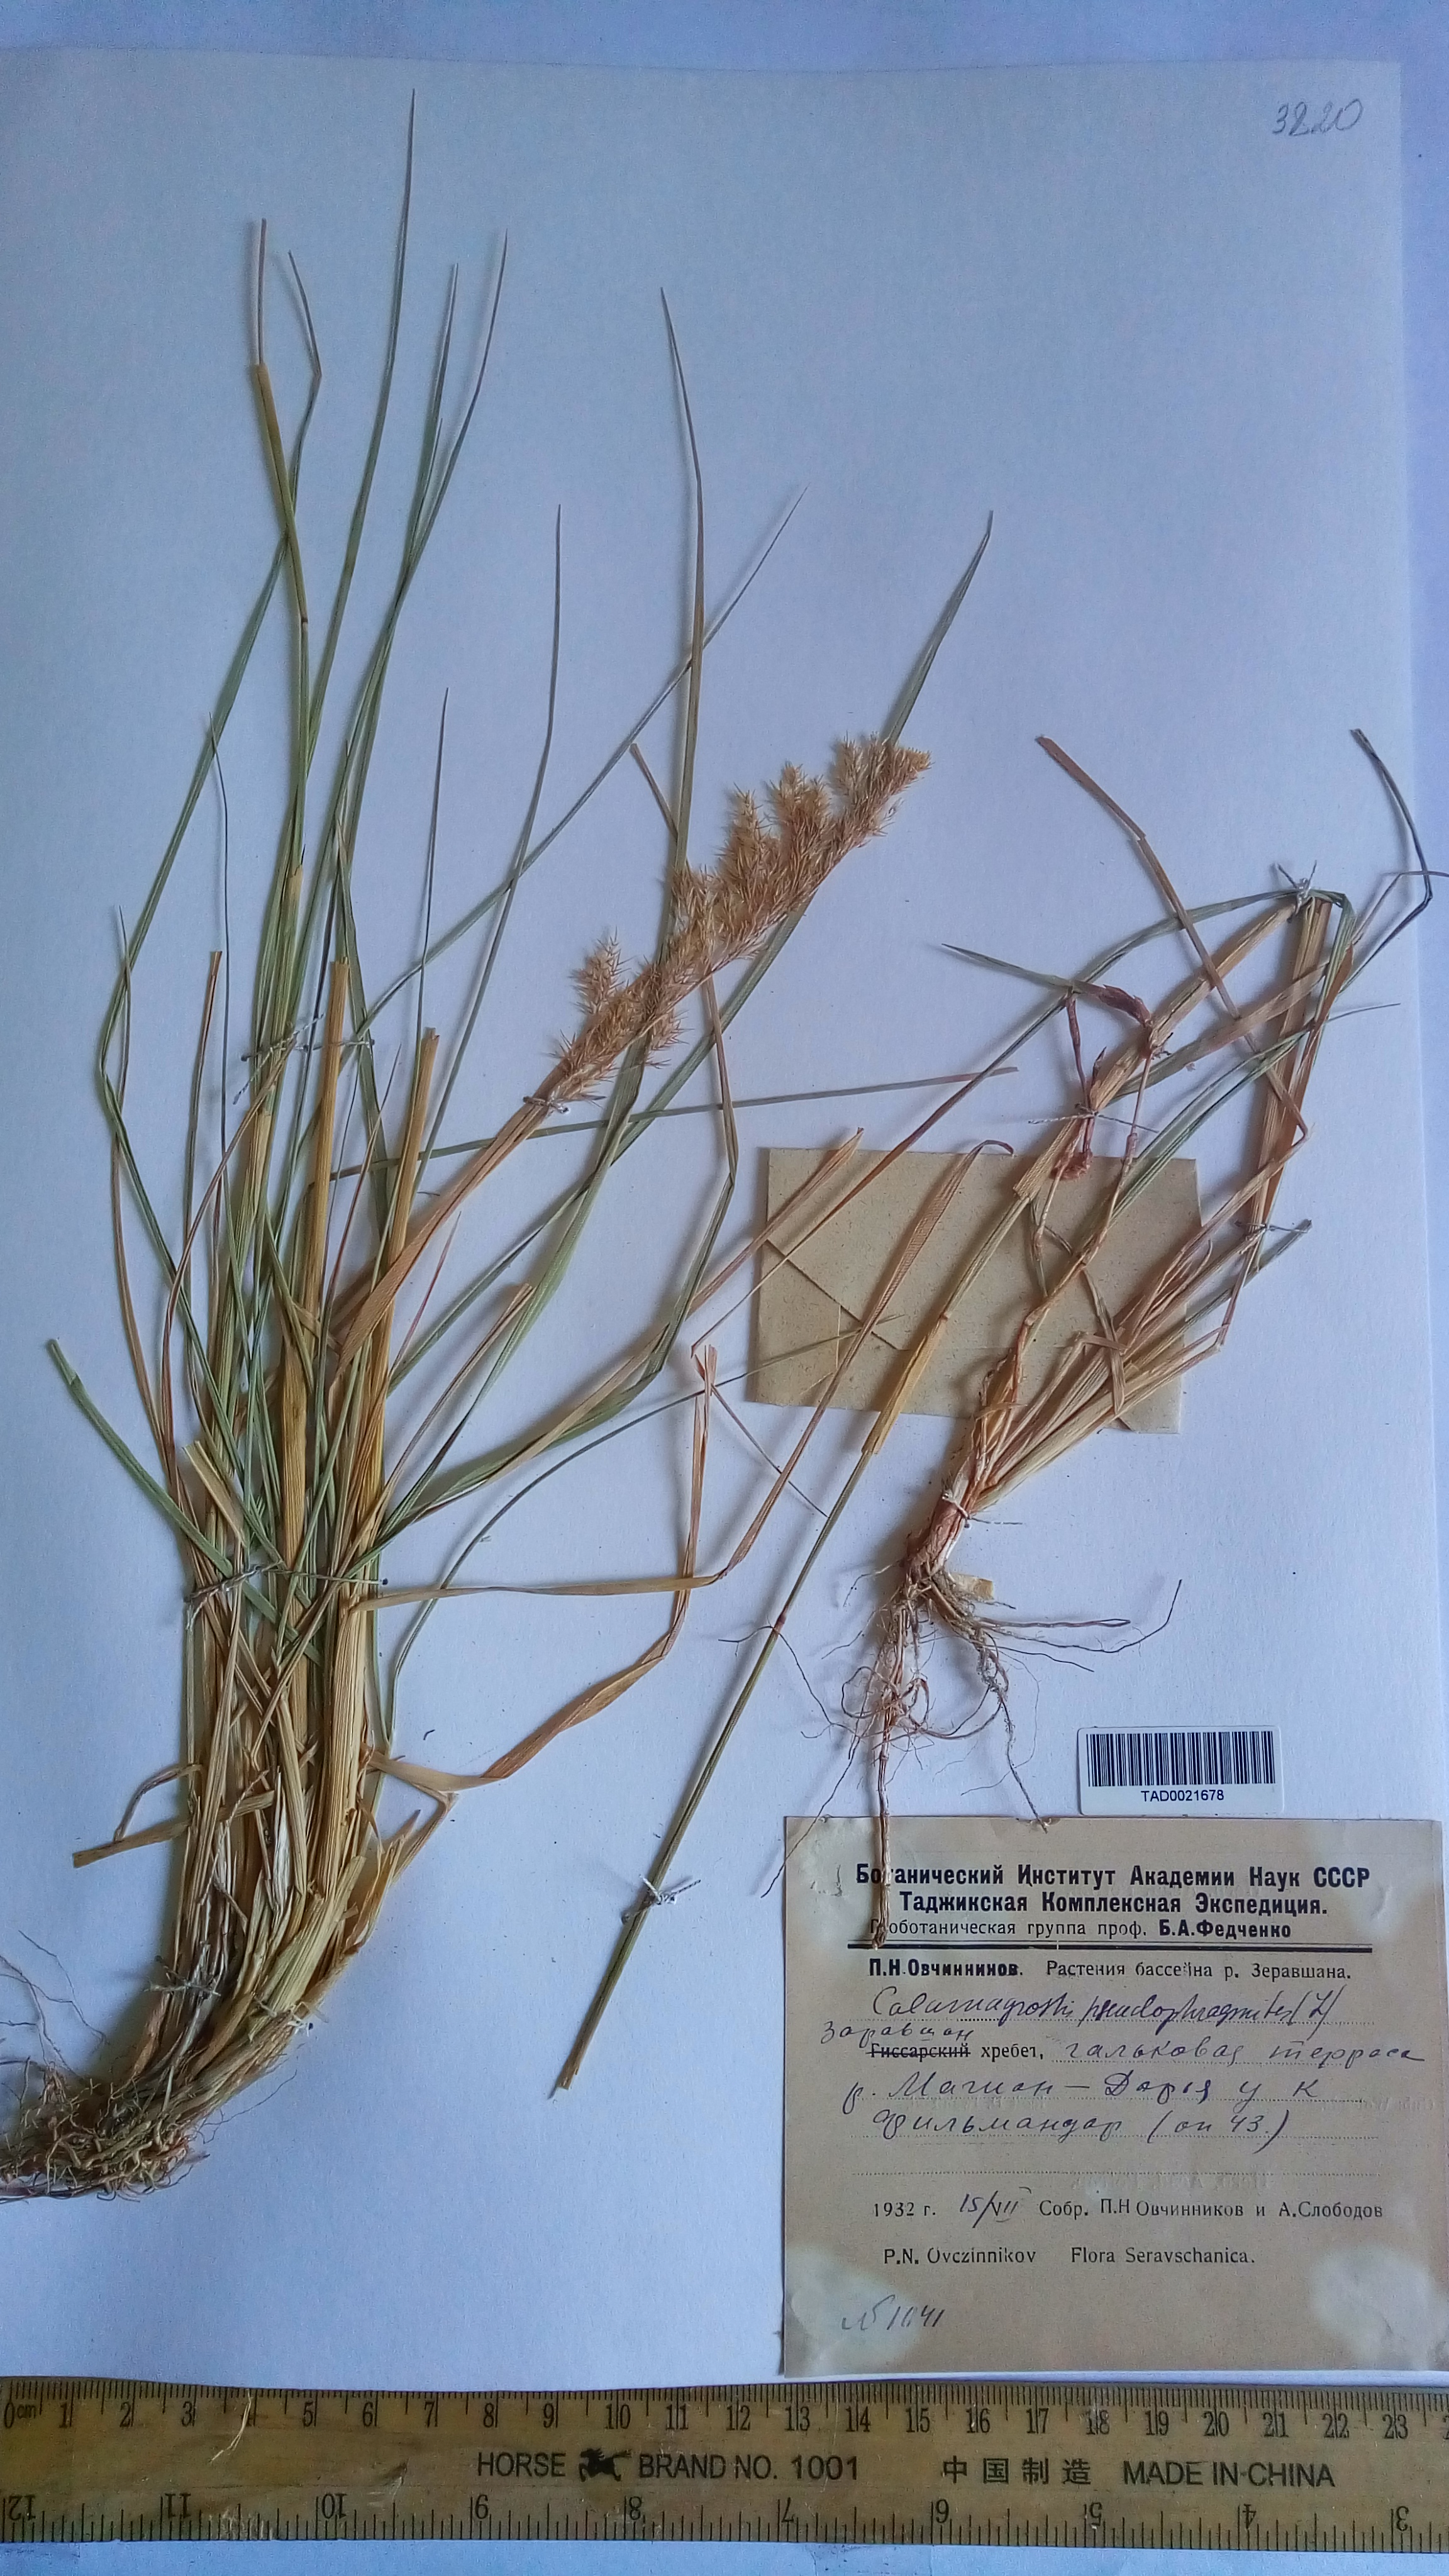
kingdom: Plantae
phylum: Tracheophyta
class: Liliopsida
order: Poales
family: Poaceae
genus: Calamagrostis
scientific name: Calamagrostis pseudophragmites
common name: Coastal small-reed
